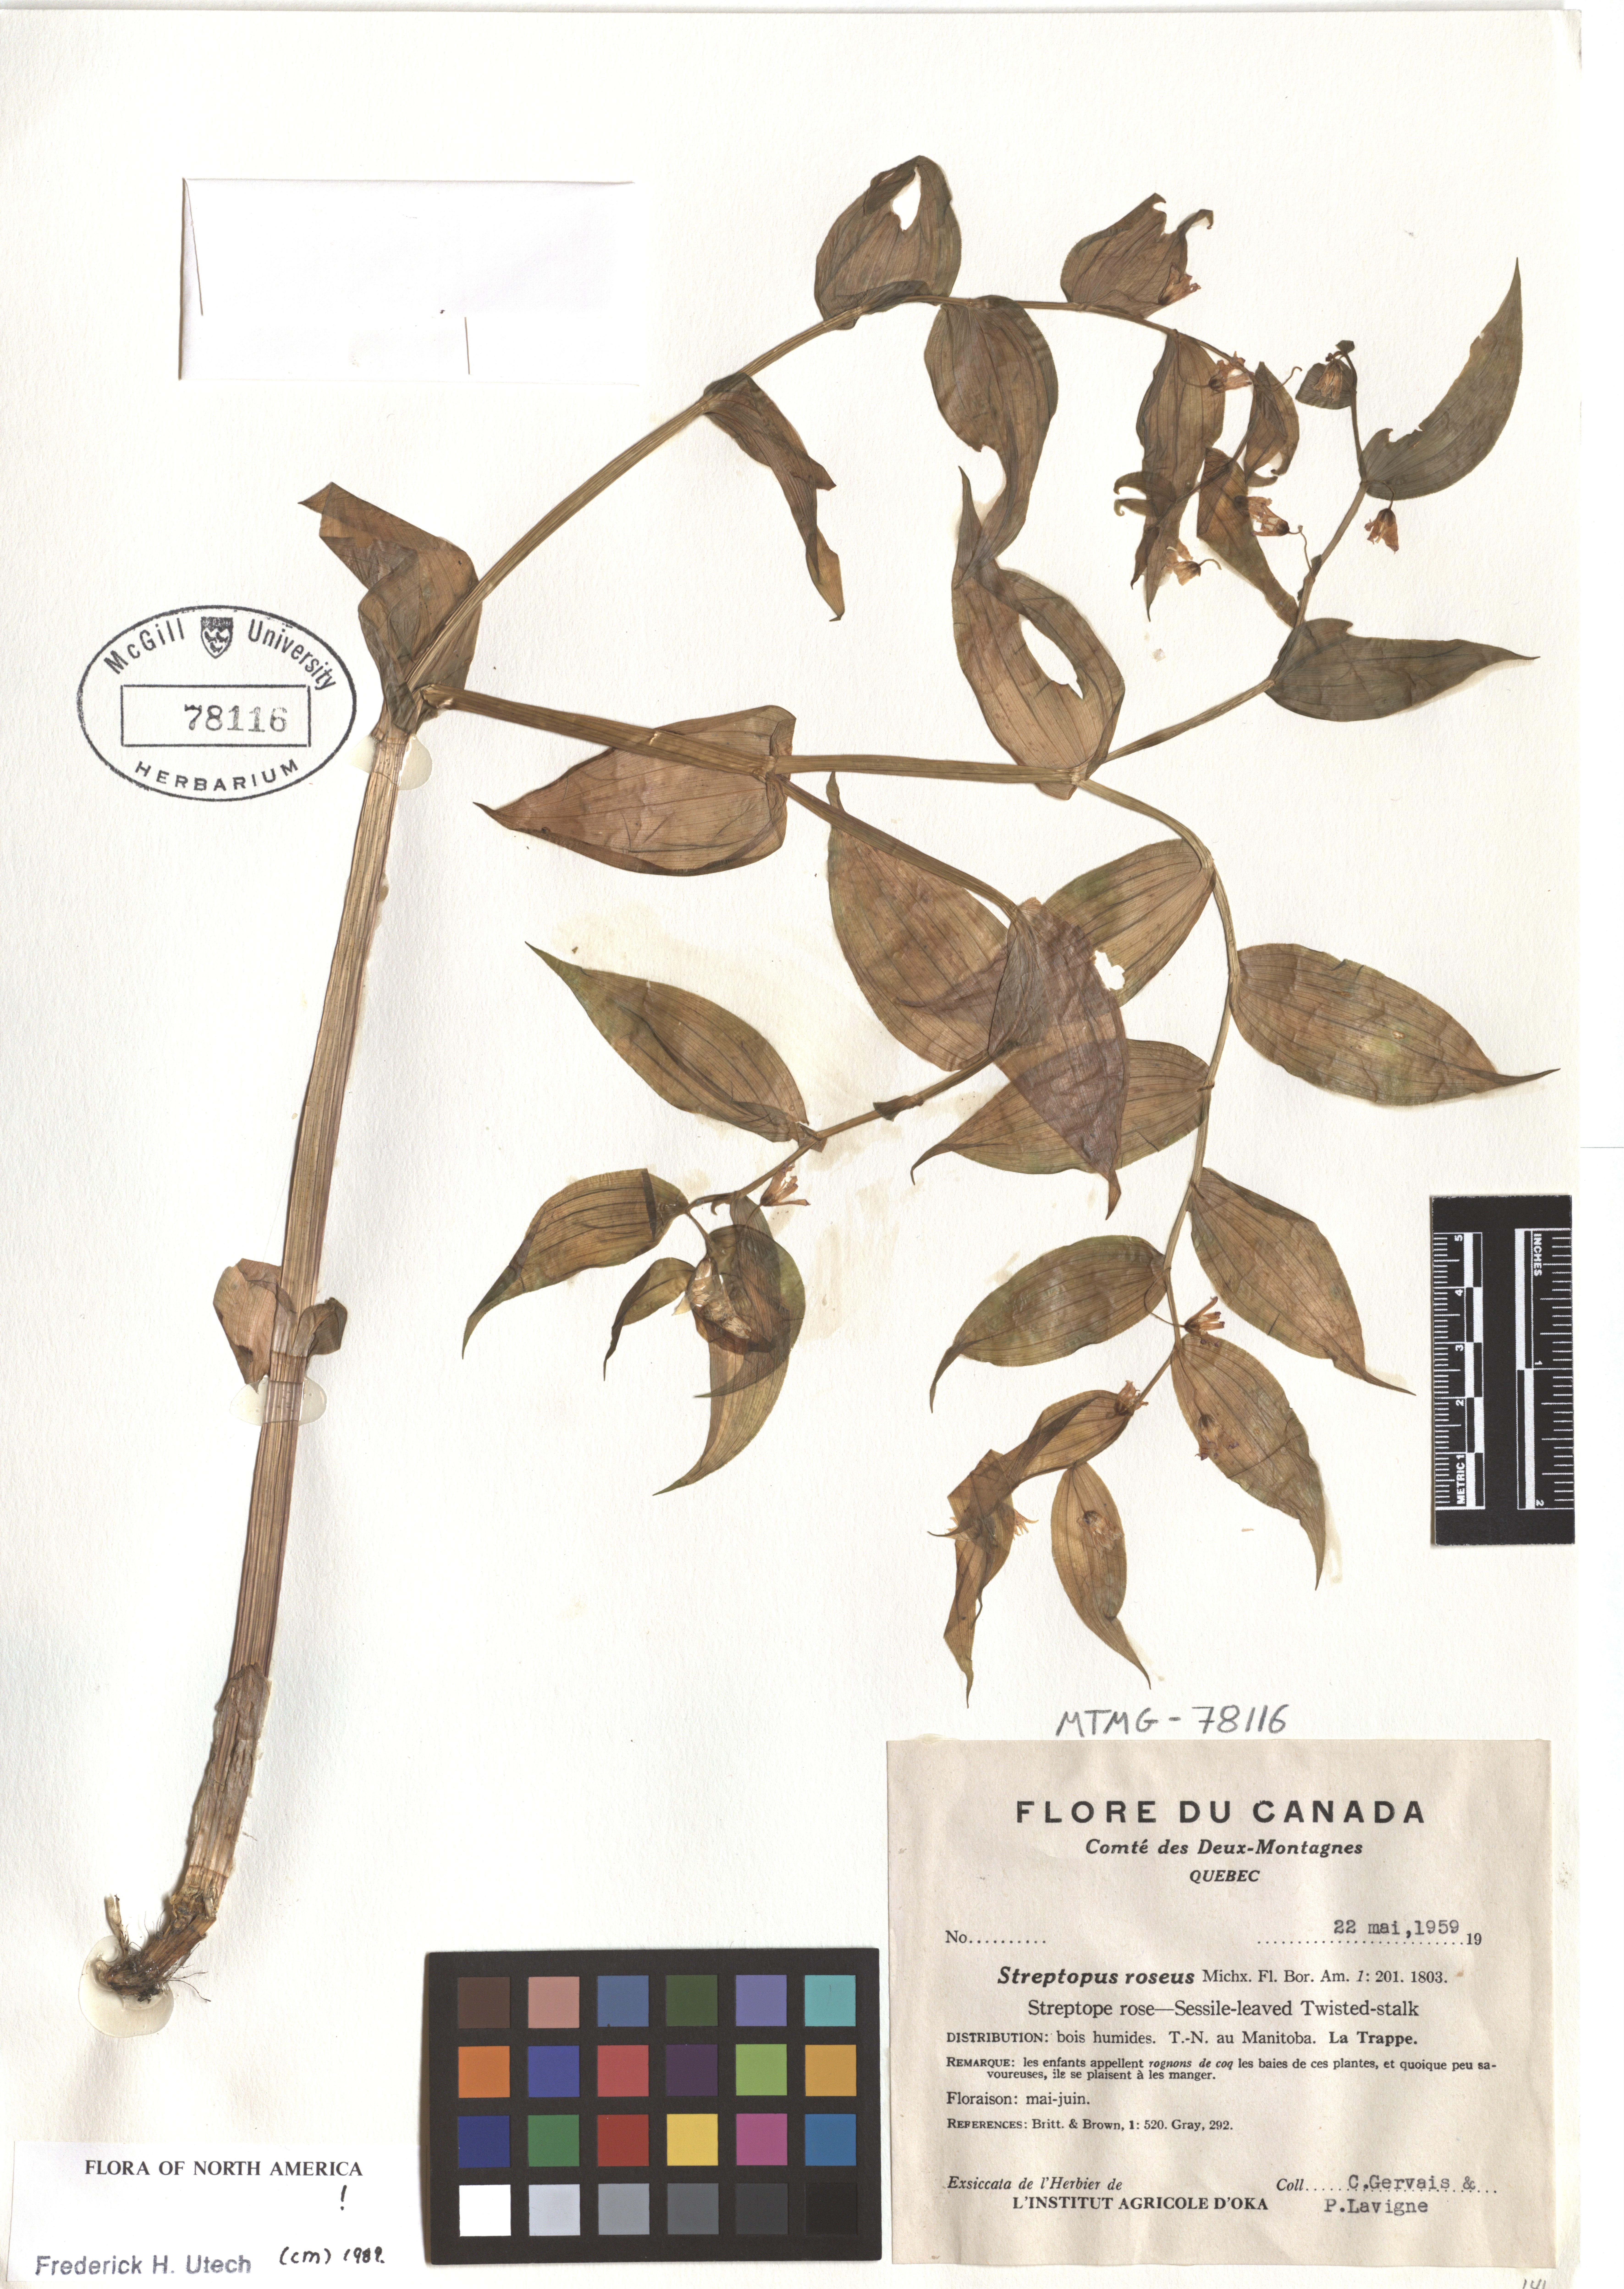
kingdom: Plantae
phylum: Tracheophyta
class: Liliopsida
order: Liliales
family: Liliaceae
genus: Streptopus
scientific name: Streptopus lanceolatus
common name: Rose mandarin
